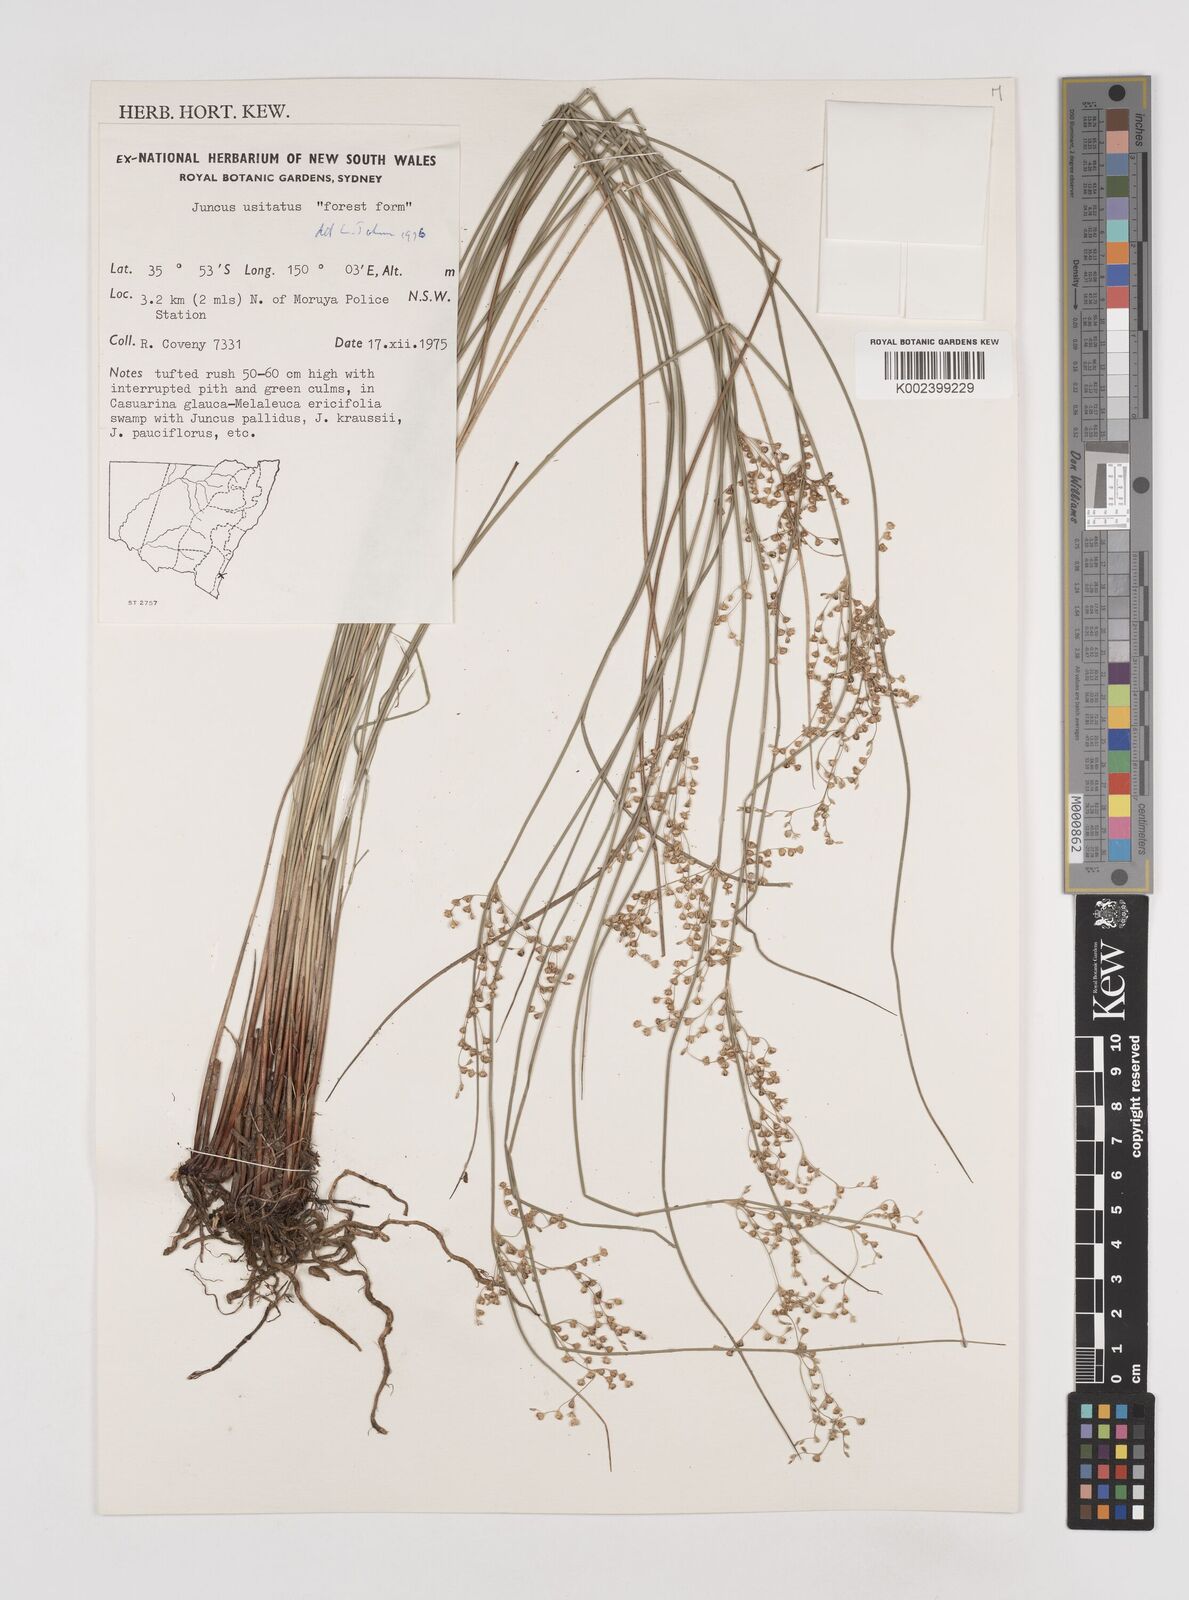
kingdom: Plantae
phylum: Tracheophyta
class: Liliopsida
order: Poales
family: Juncaceae
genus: Juncus
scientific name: Juncus usitatus
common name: Rush
